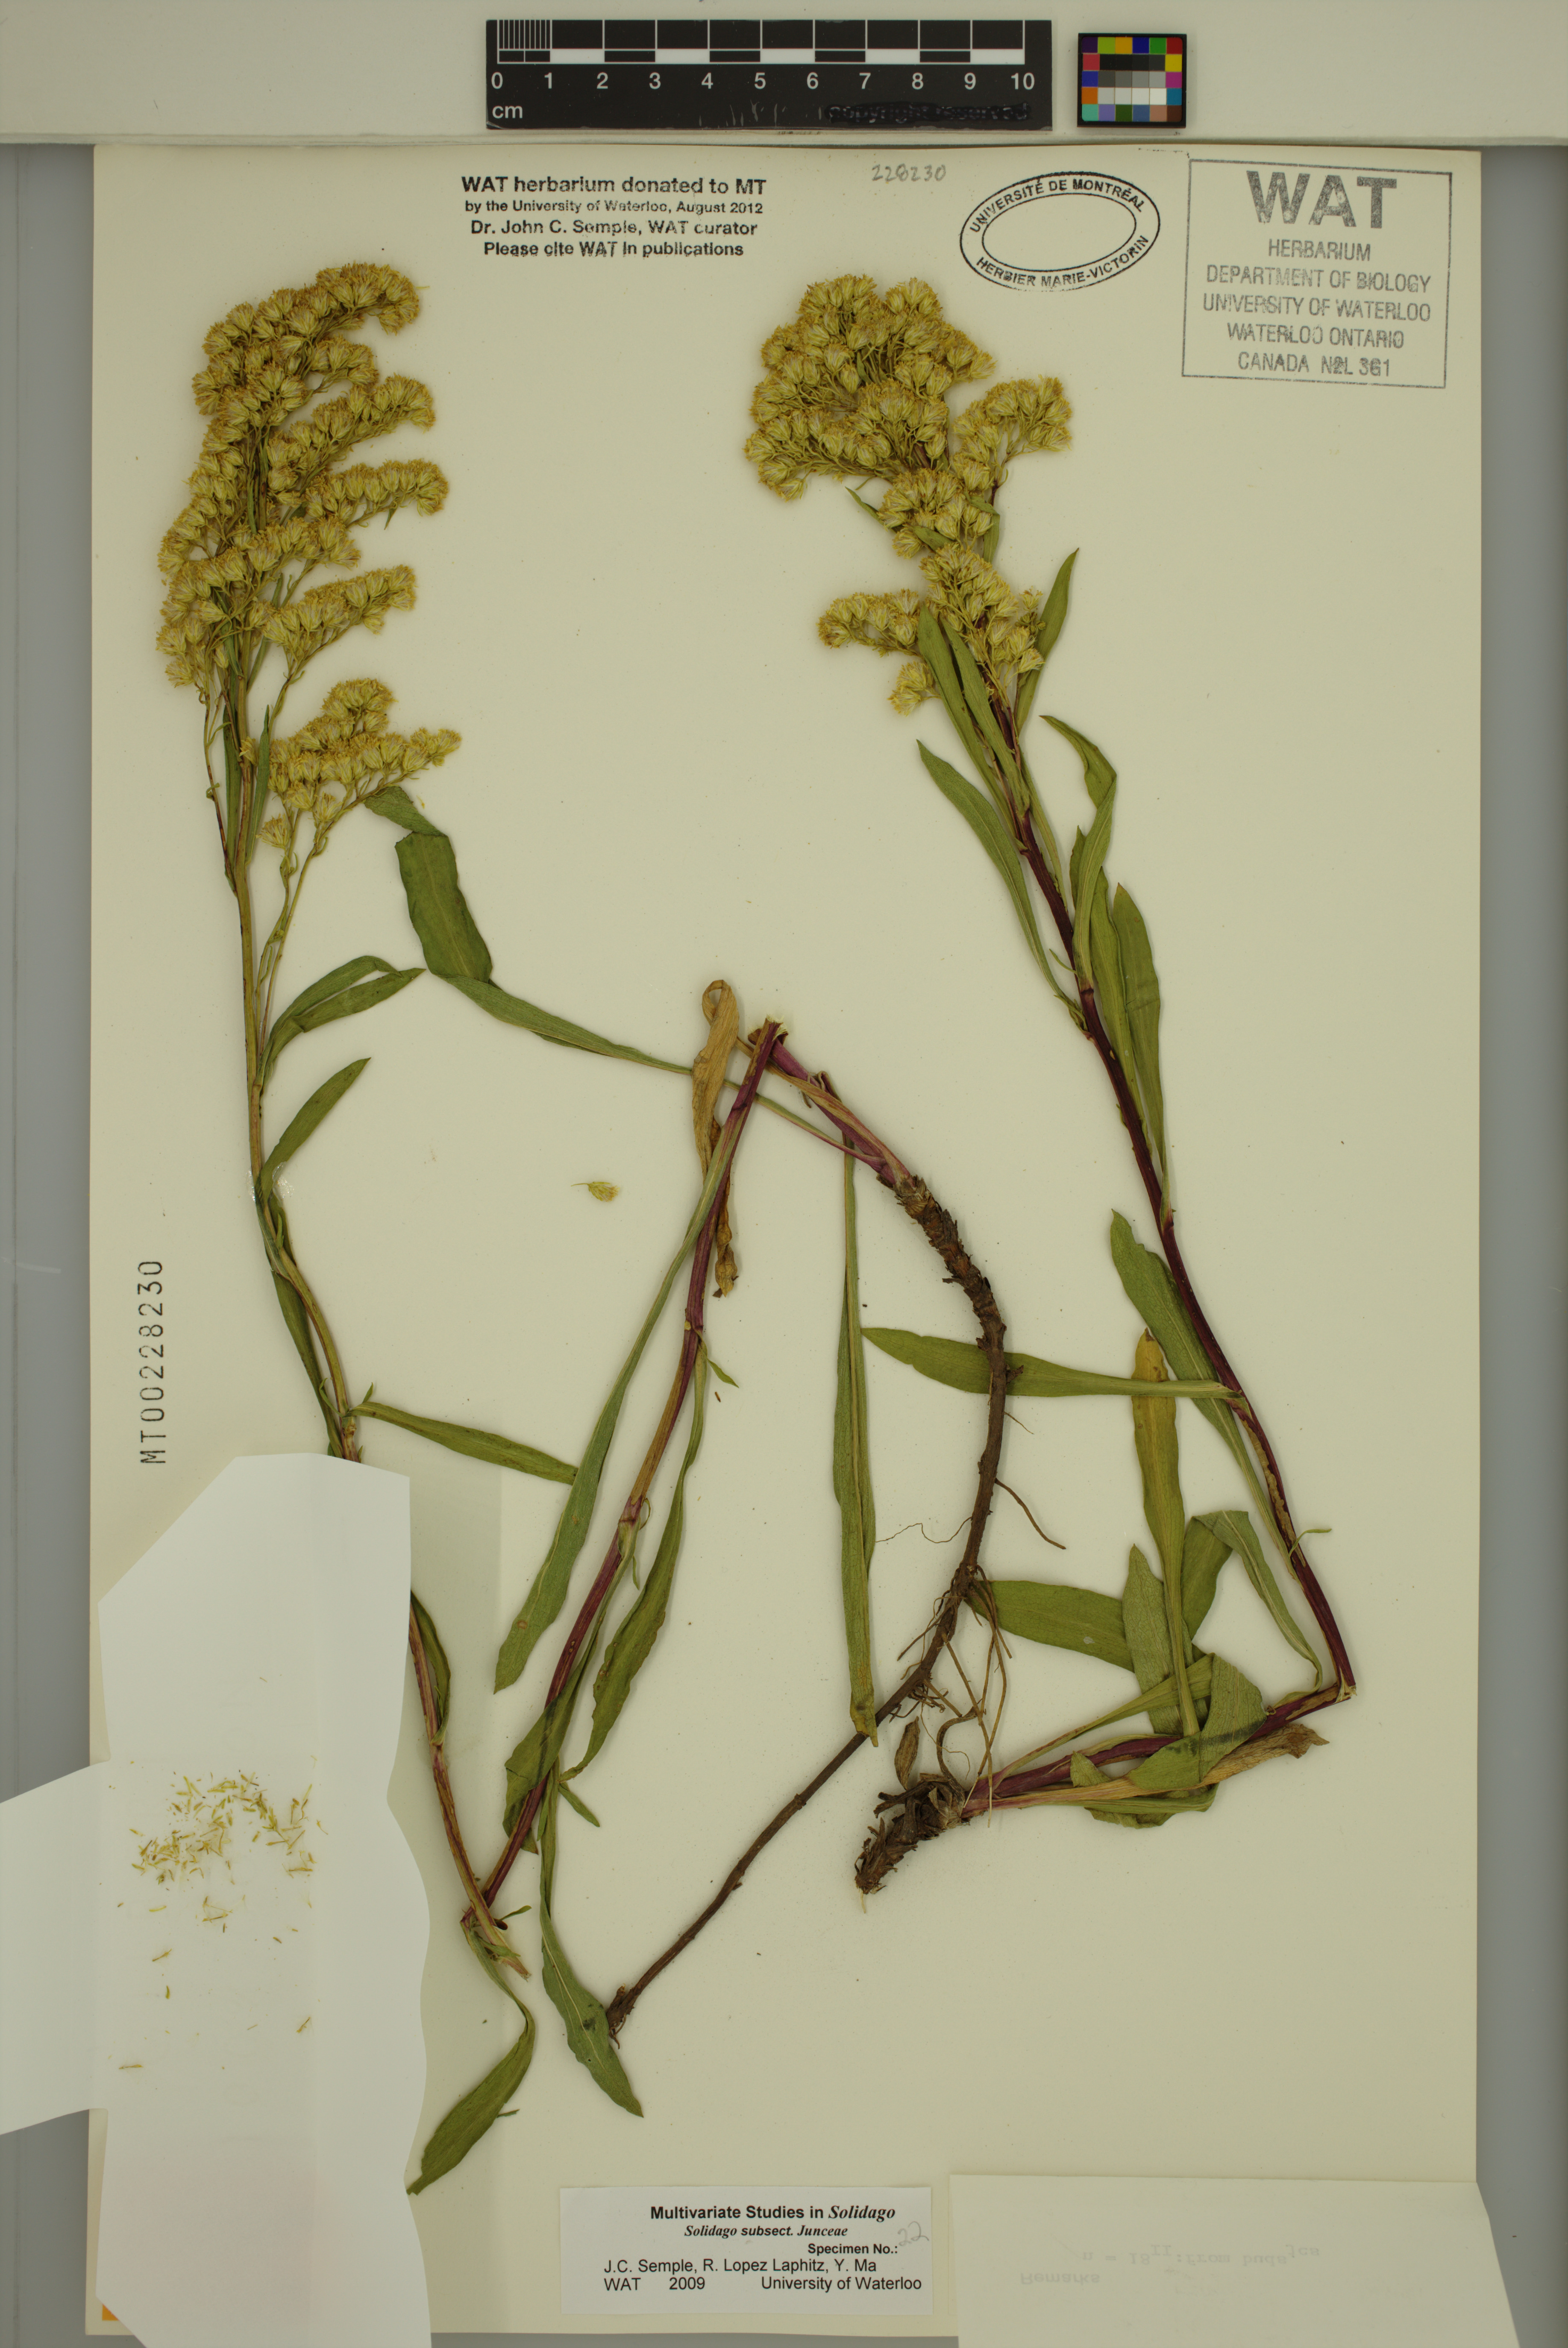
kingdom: Plantae
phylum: Tracheophyta
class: Magnoliopsida
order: Asterales
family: Asteraceae
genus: Solidago
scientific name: Solidago missouriensis
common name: Prairie goldenrod
